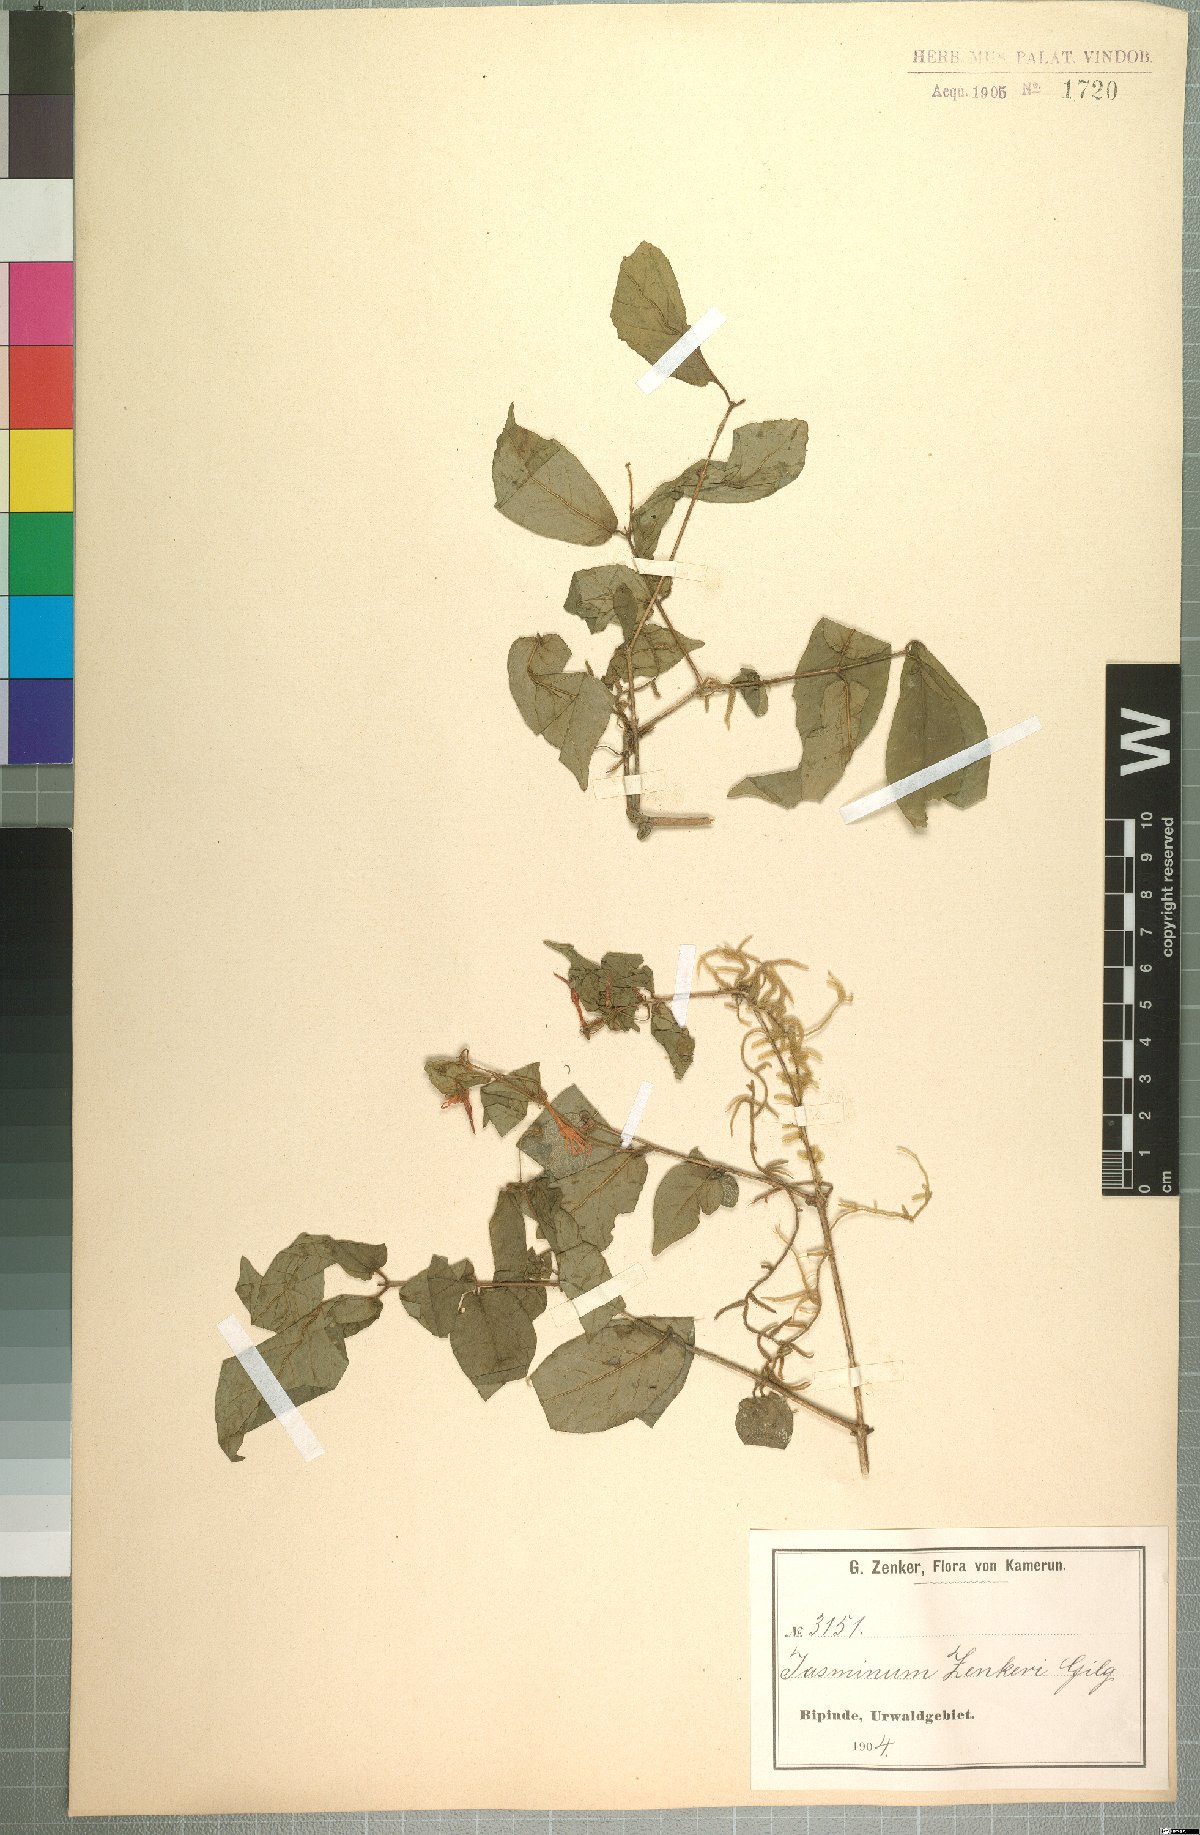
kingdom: Plantae
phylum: Tracheophyta
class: Magnoliopsida
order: Lamiales
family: Oleaceae
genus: Jasminum
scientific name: Jasminum preussii
